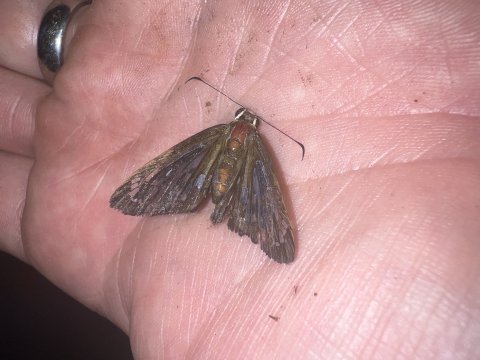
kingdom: Animalia
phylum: Arthropoda
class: Insecta
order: Lepidoptera
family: Hesperiidae
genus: Phanus
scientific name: Phanus
